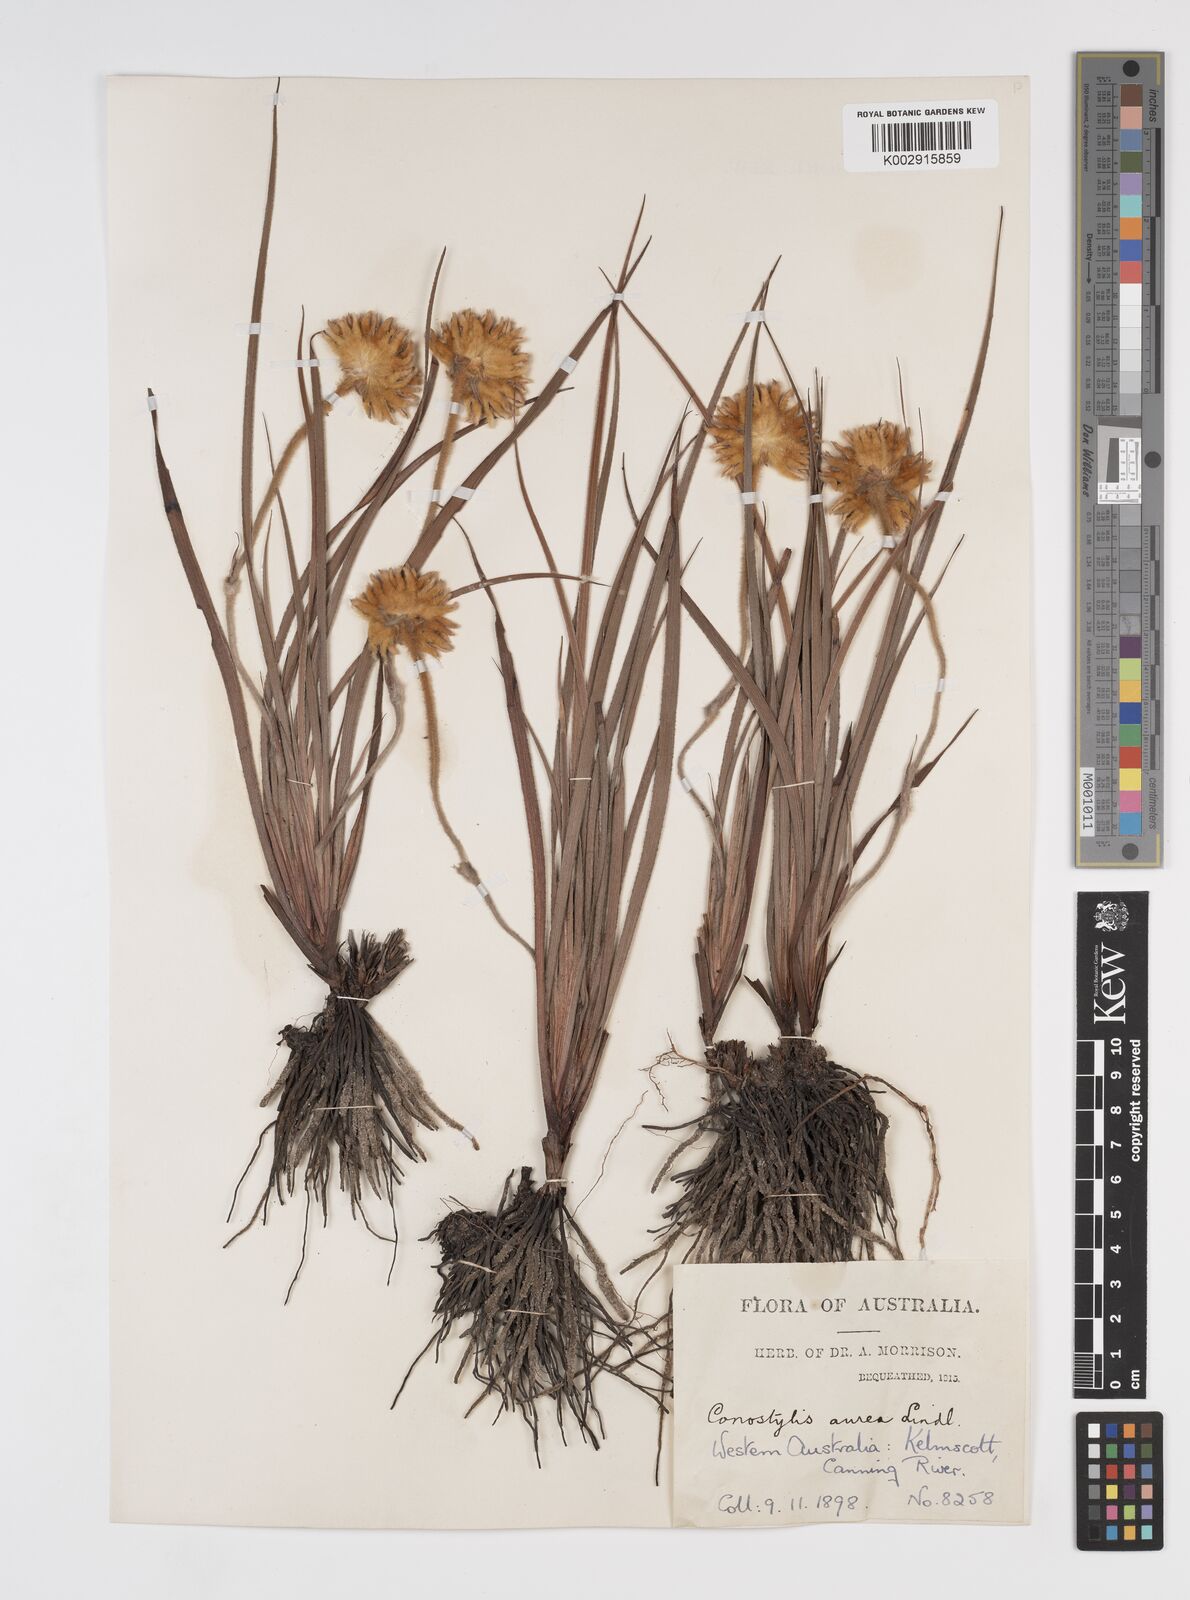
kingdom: Plantae
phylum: Tracheophyta
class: Liliopsida
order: Commelinales
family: Haemodoraceae
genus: Conostylis
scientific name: Conostylis aurea
